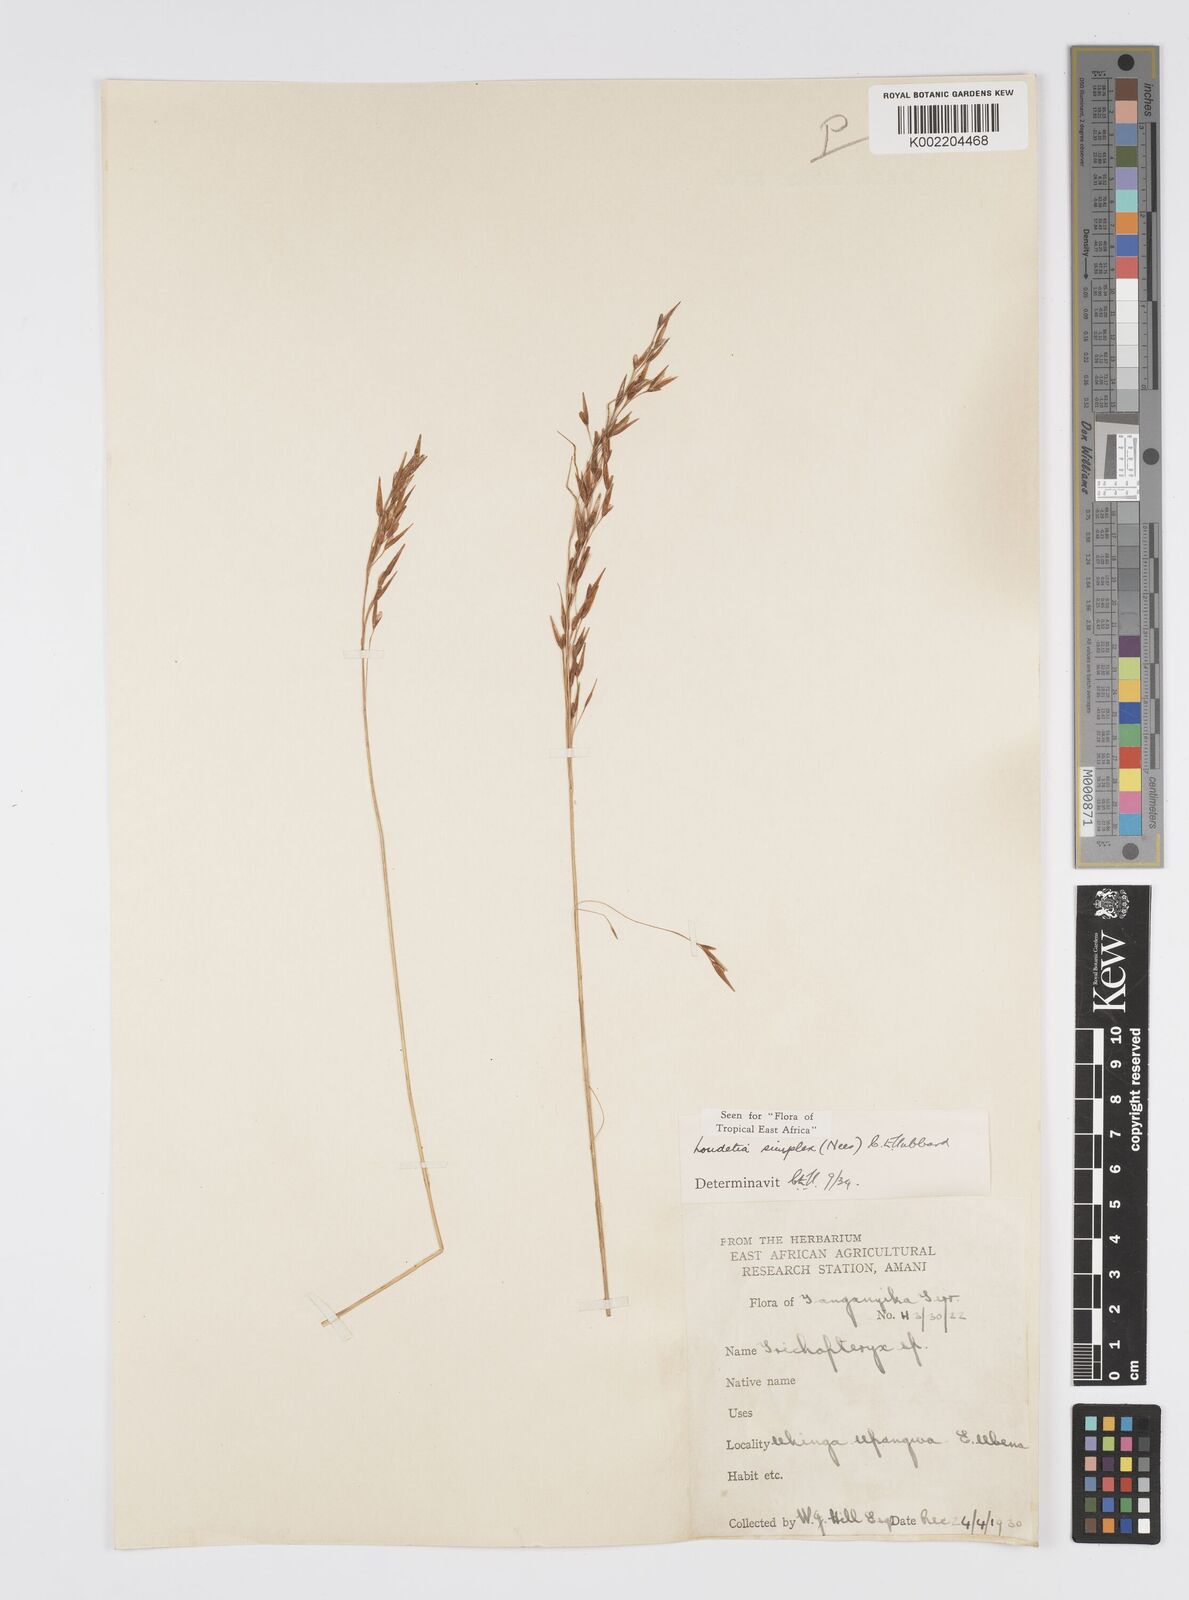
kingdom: Plantae
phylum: Tracheophyta
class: Liliopsida
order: Poales
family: Poaceae
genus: Loudetia
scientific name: Loudetia simplex
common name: Common russet grass
